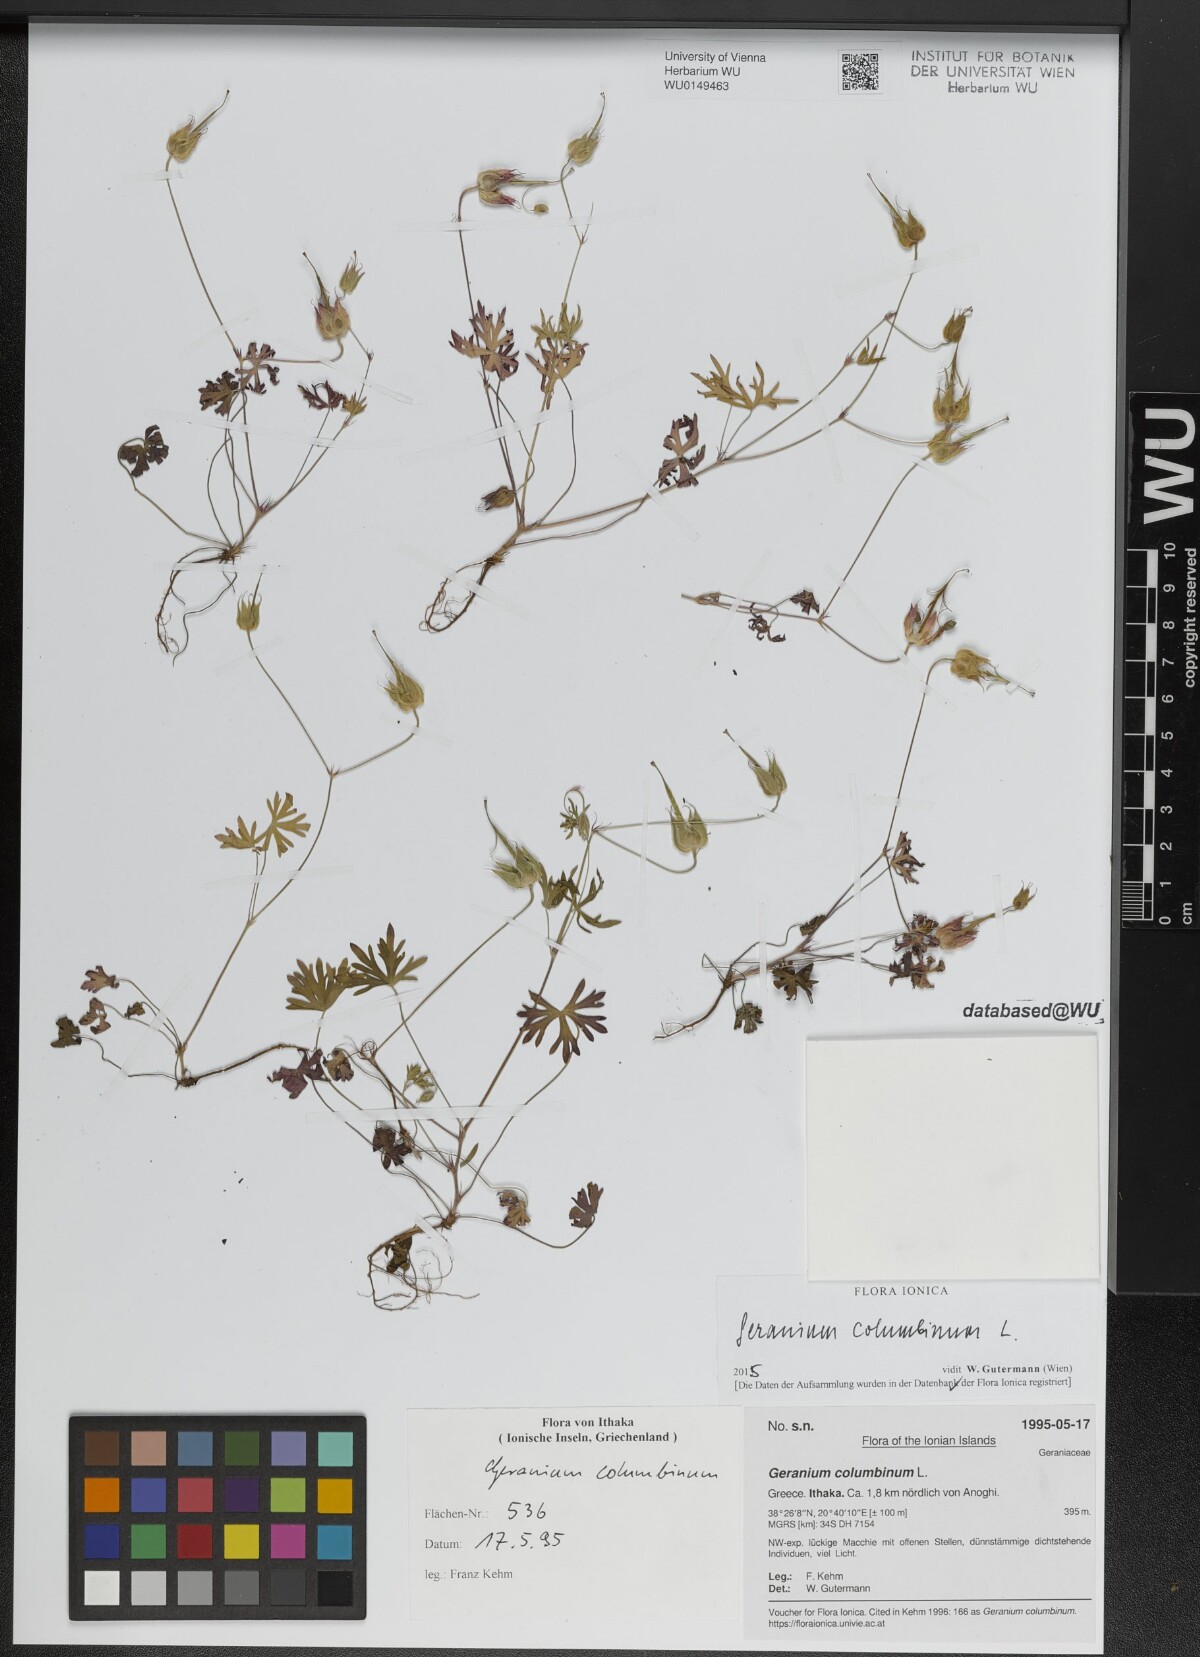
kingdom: Plantae
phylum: Tracheophyta
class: Magnoliopsida
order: Geraniales
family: Geraniaceae
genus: Geranium
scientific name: Geranium columbinum
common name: Long-stalked crane's-bill
